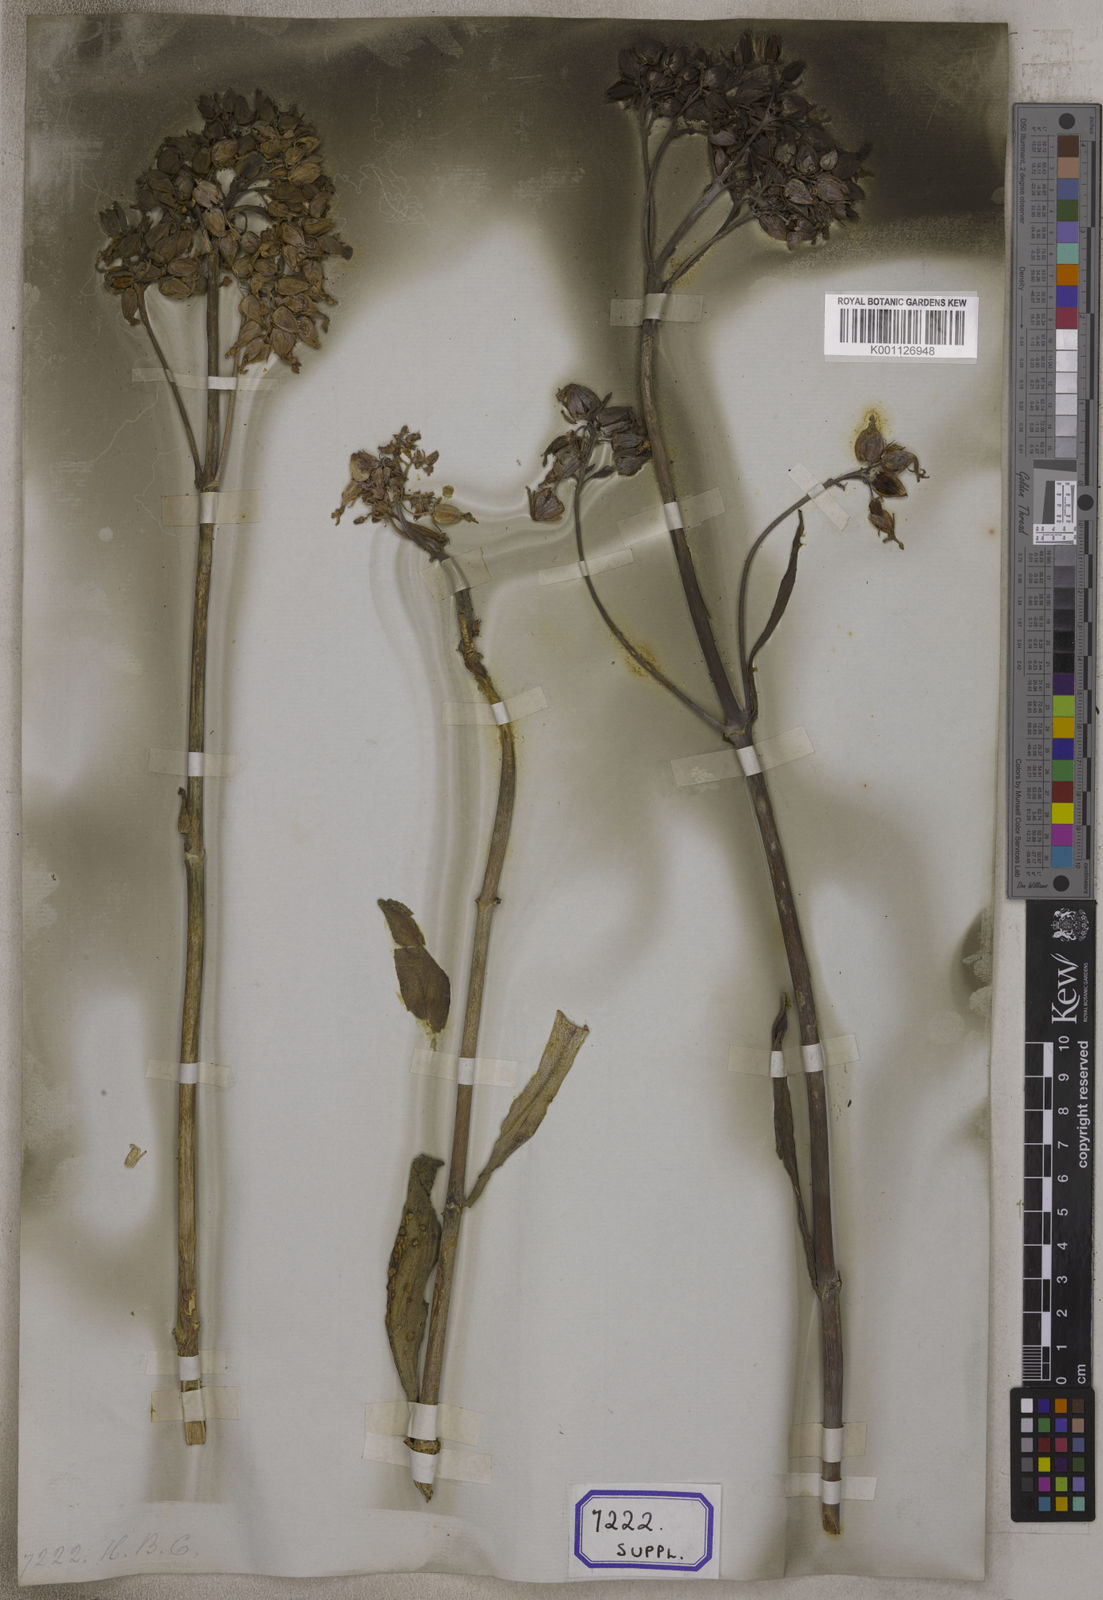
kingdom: Plantae
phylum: Tracheophyta
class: Magnoliopsida
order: Saxifragales
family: Crassulaceae
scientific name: Crassulaceae
